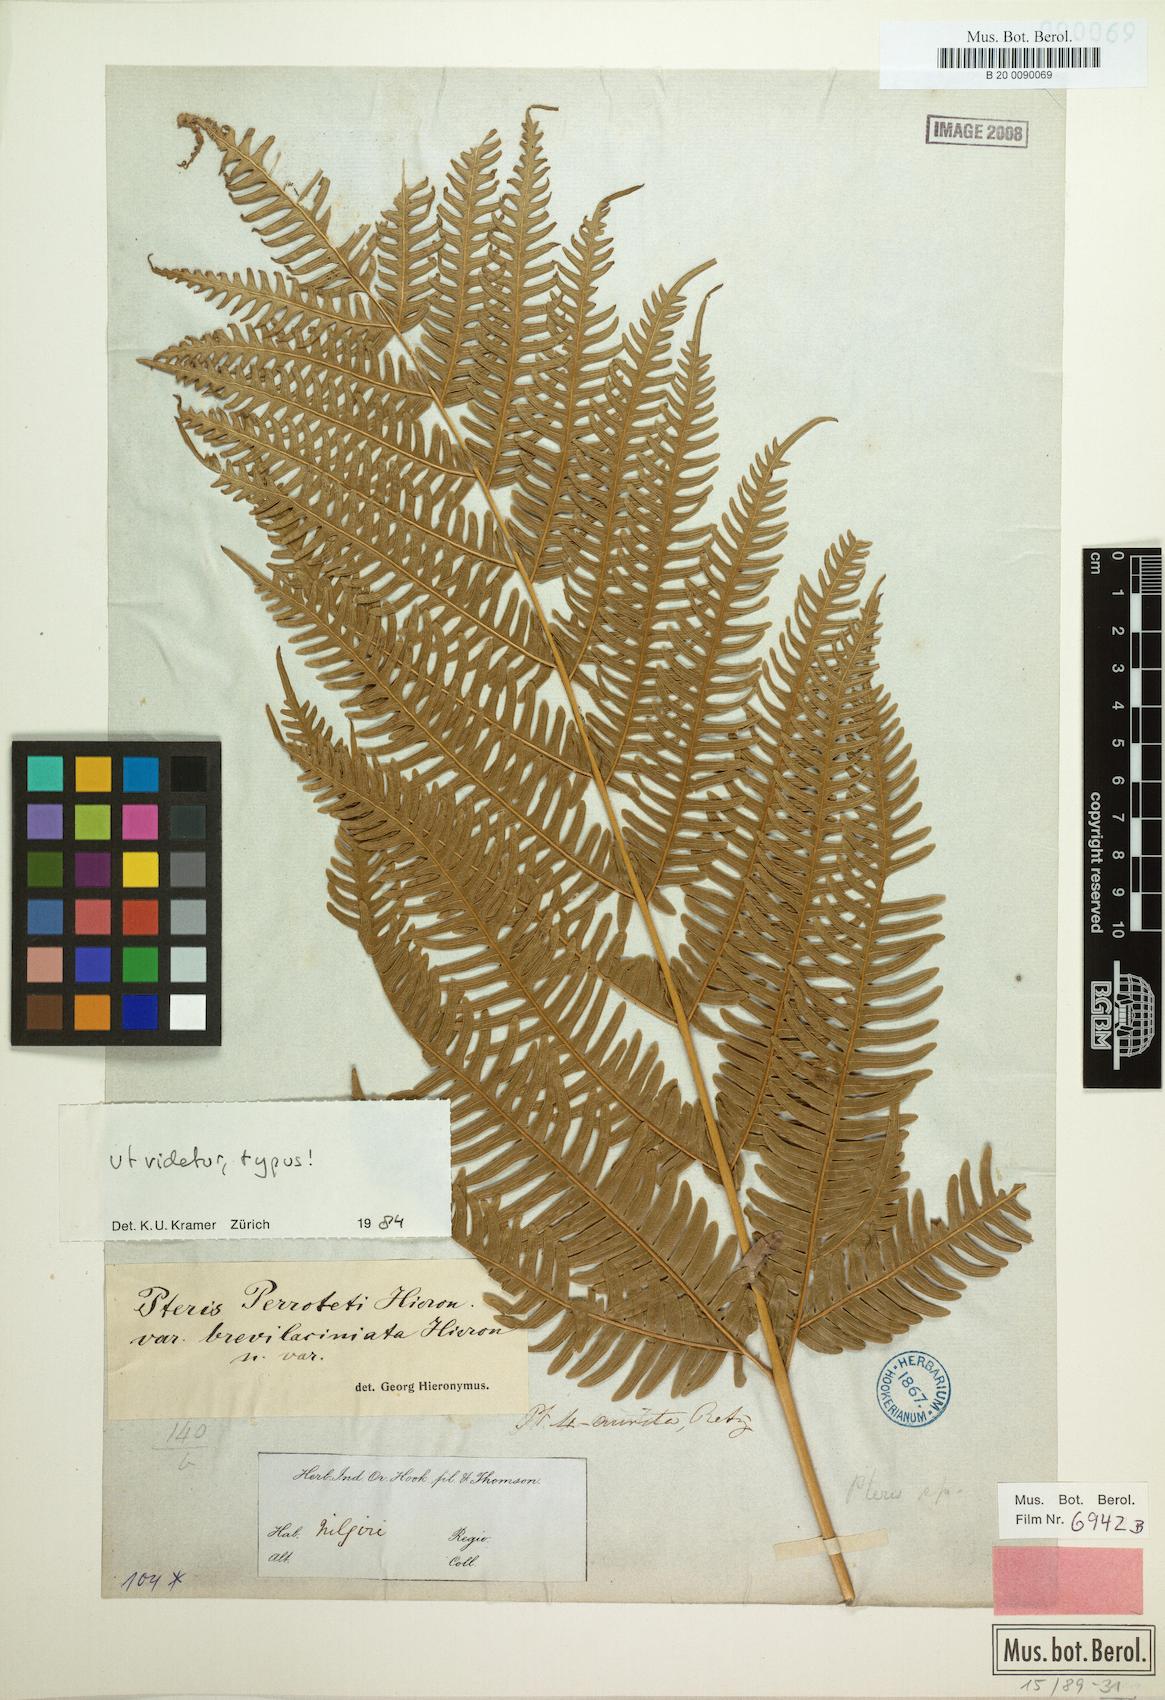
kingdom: Plantae
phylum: Tracheophyta
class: Polypodiopsida
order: Polypodiales
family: Pteridaceae
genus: Pteris
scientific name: Pteris quadriaurita
